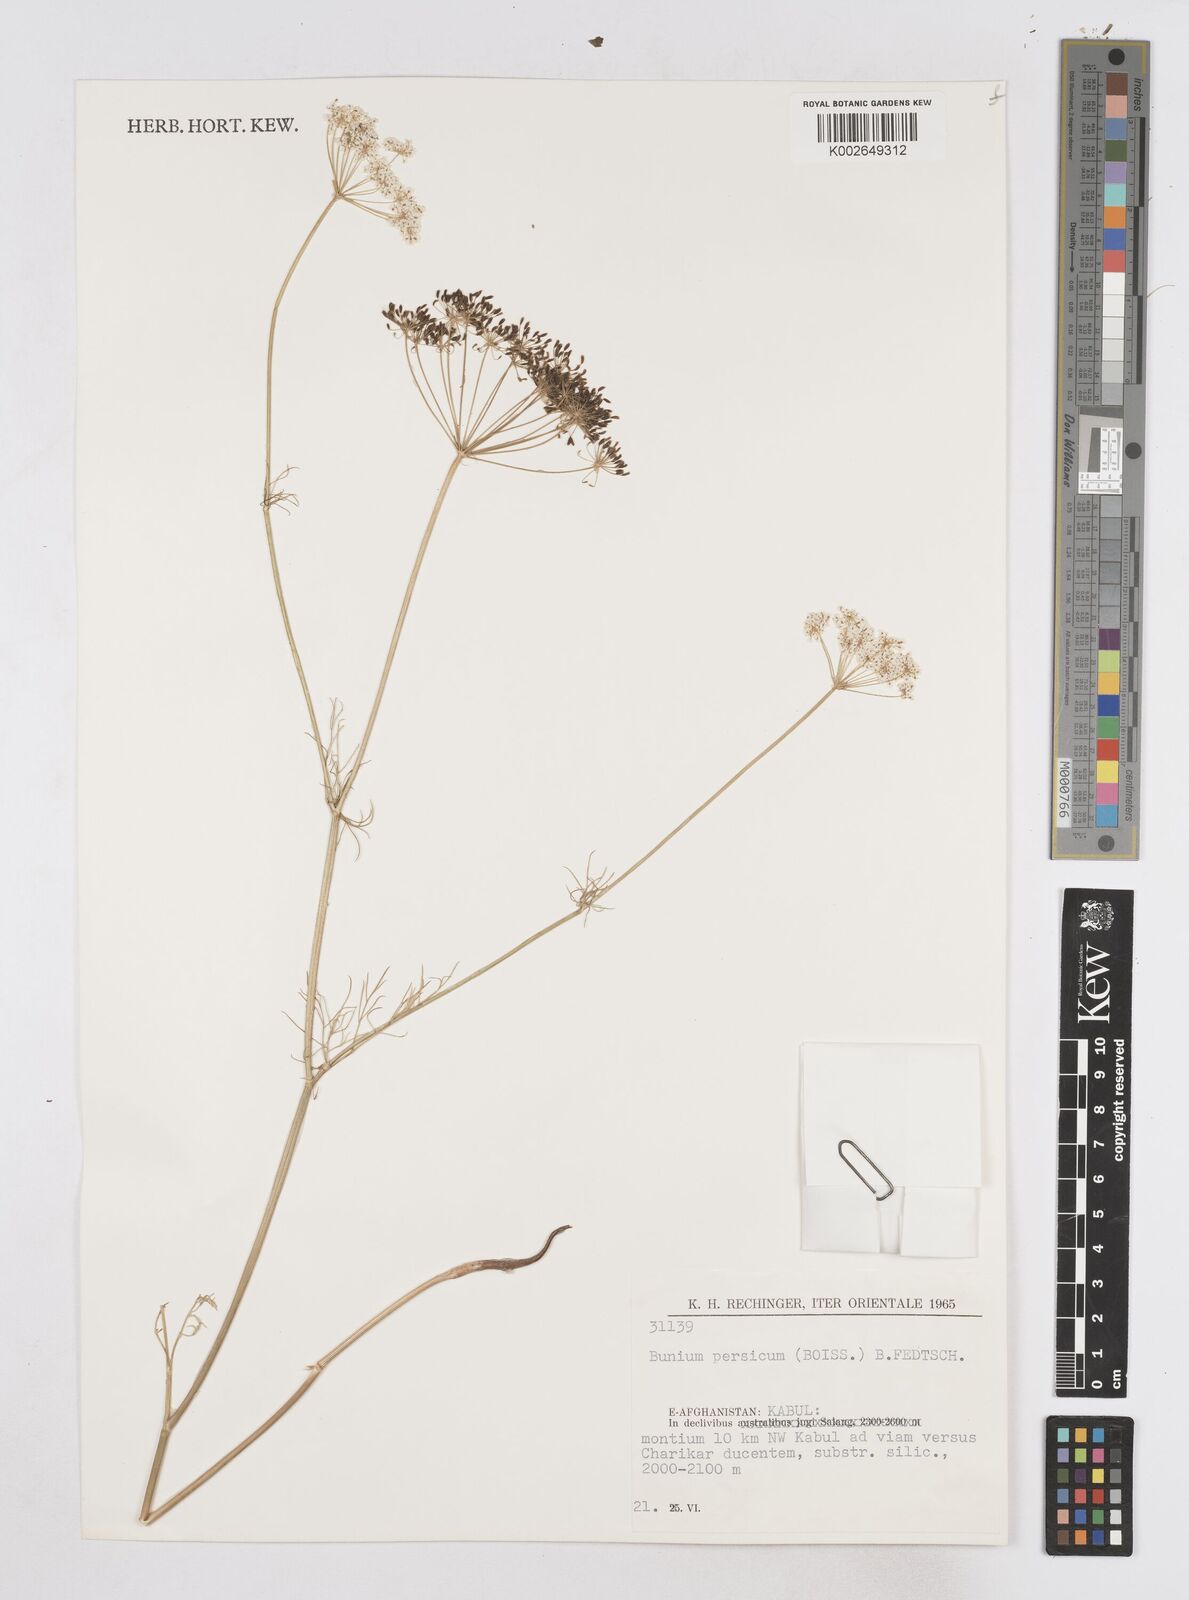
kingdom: Plantae
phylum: Tracheophyta
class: Magnoliopsida
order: Apiales
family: Apiaceae
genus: Elwendia
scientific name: Elwendia persica
